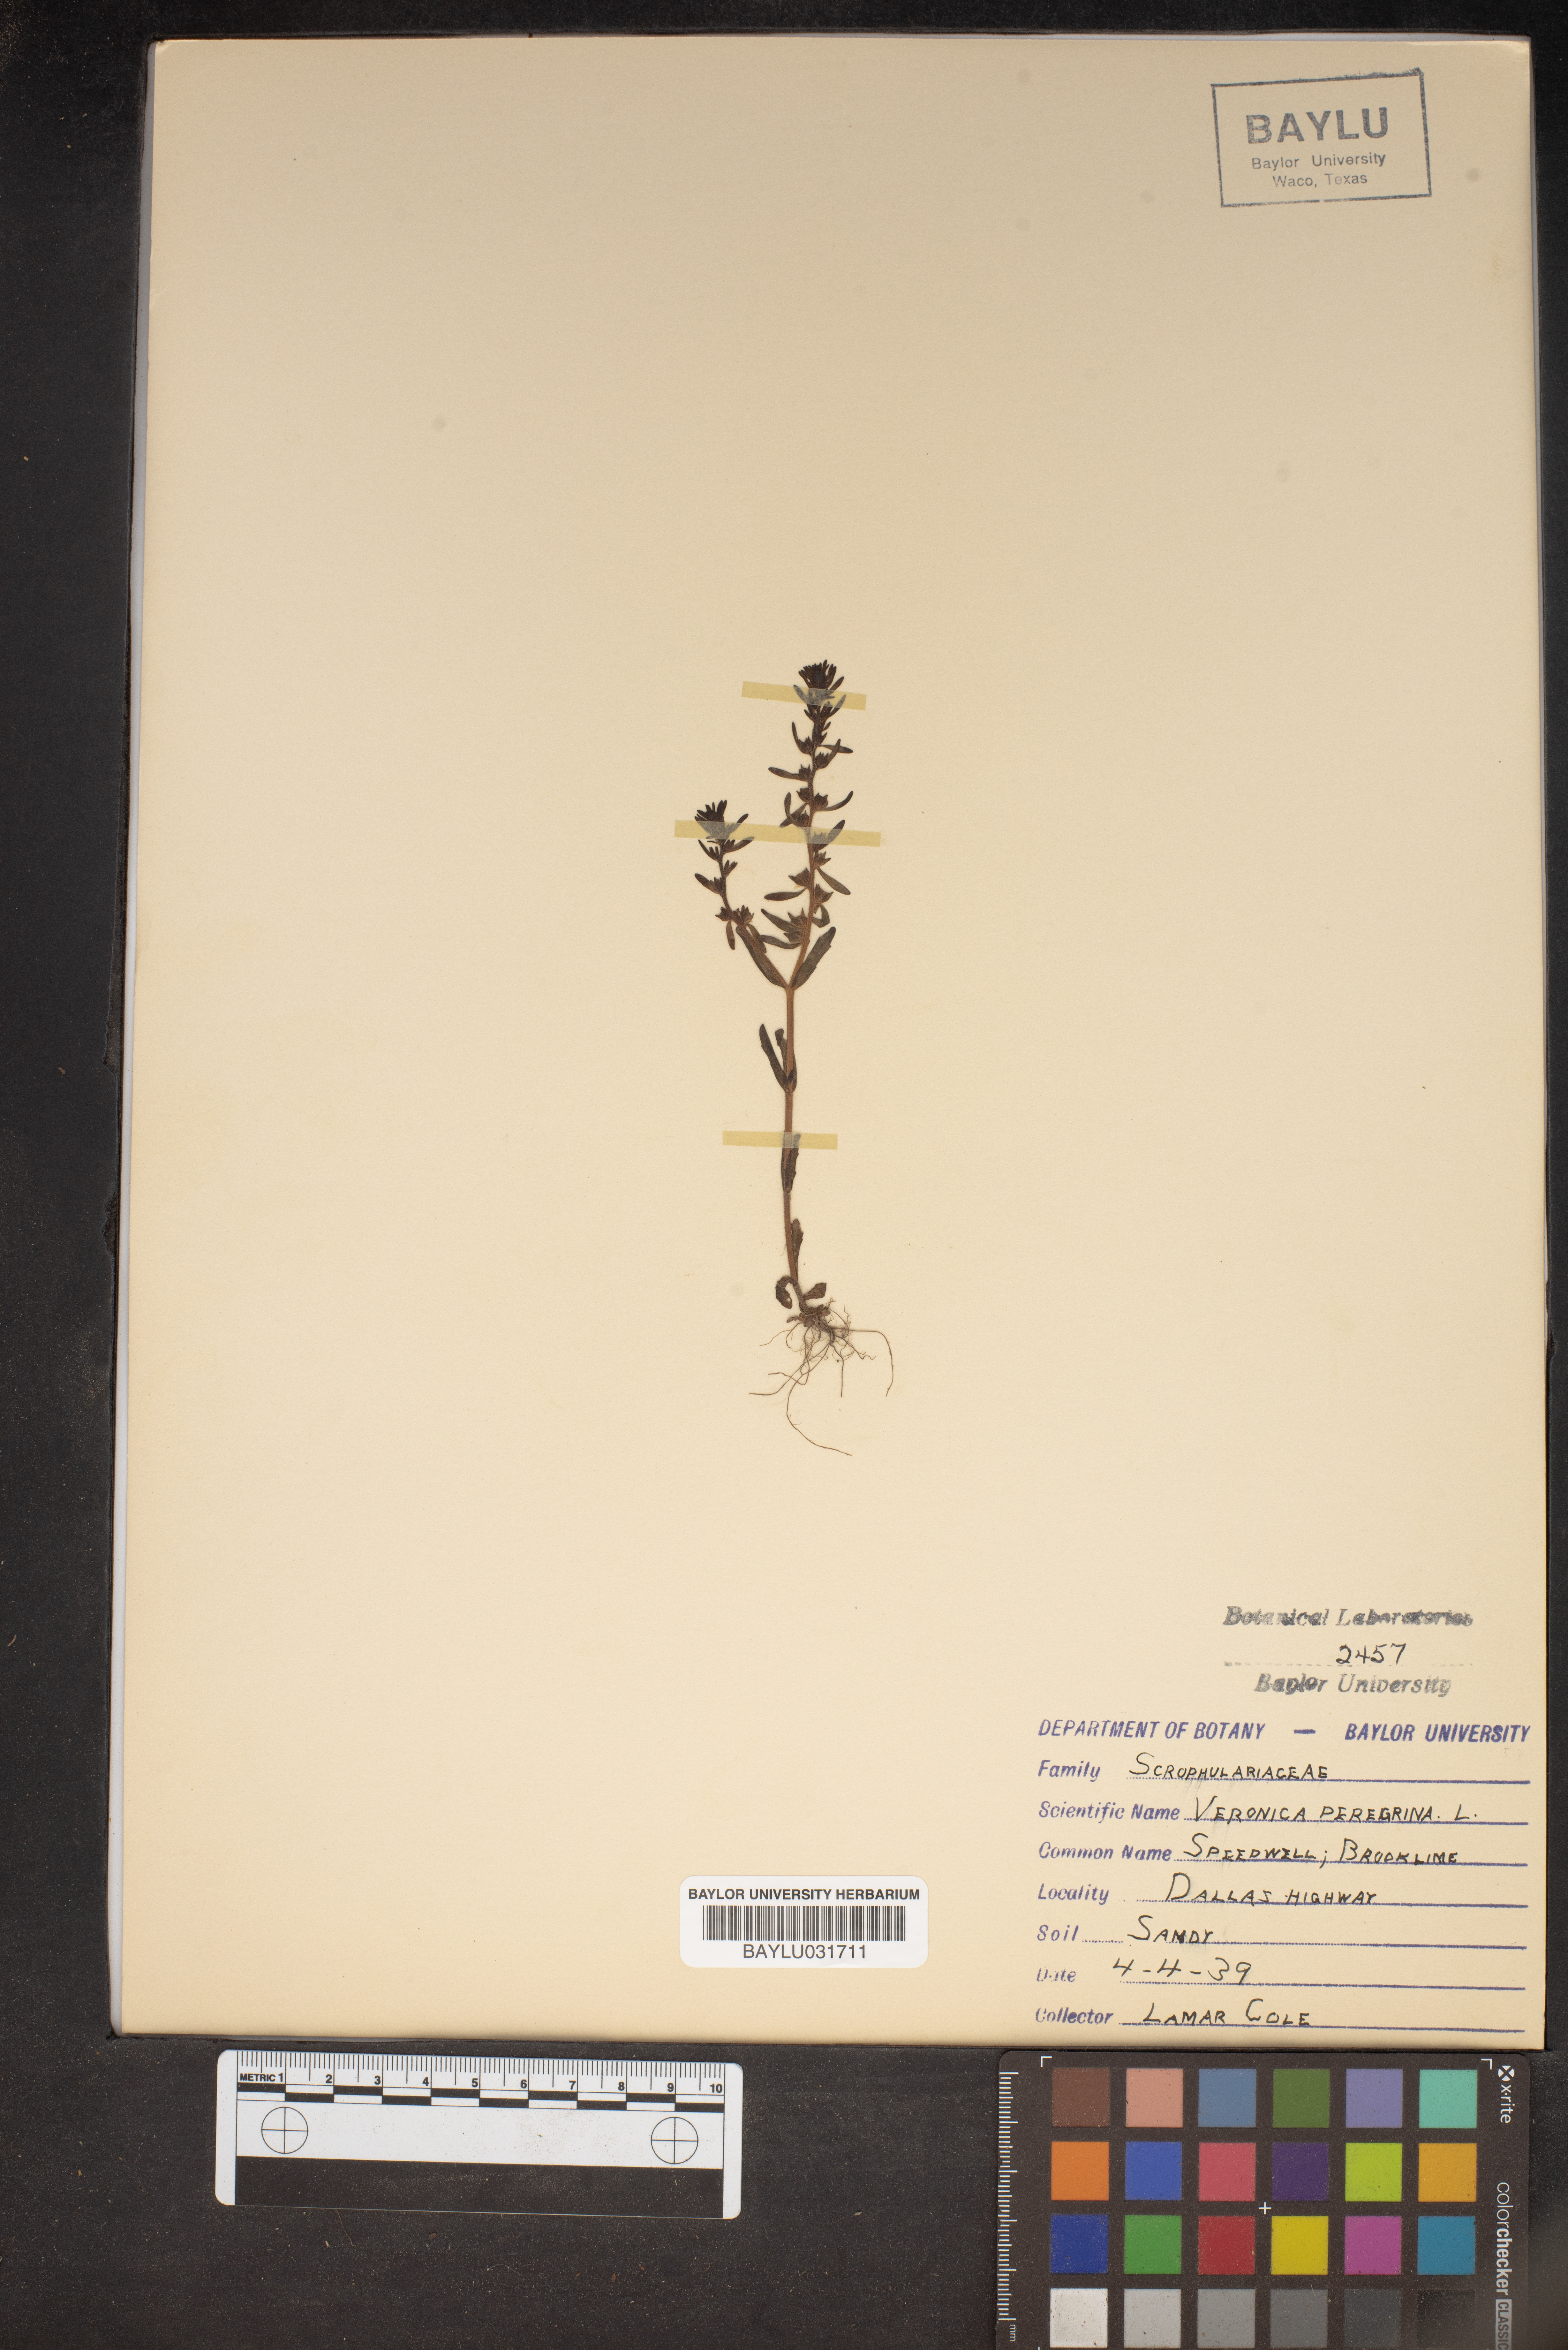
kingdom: Plantae
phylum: Tracheophyta
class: Magnoliopsida
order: Lamiales
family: Plantaginaceae
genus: Veronica
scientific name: Veronica peregrina
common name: Neckweed
